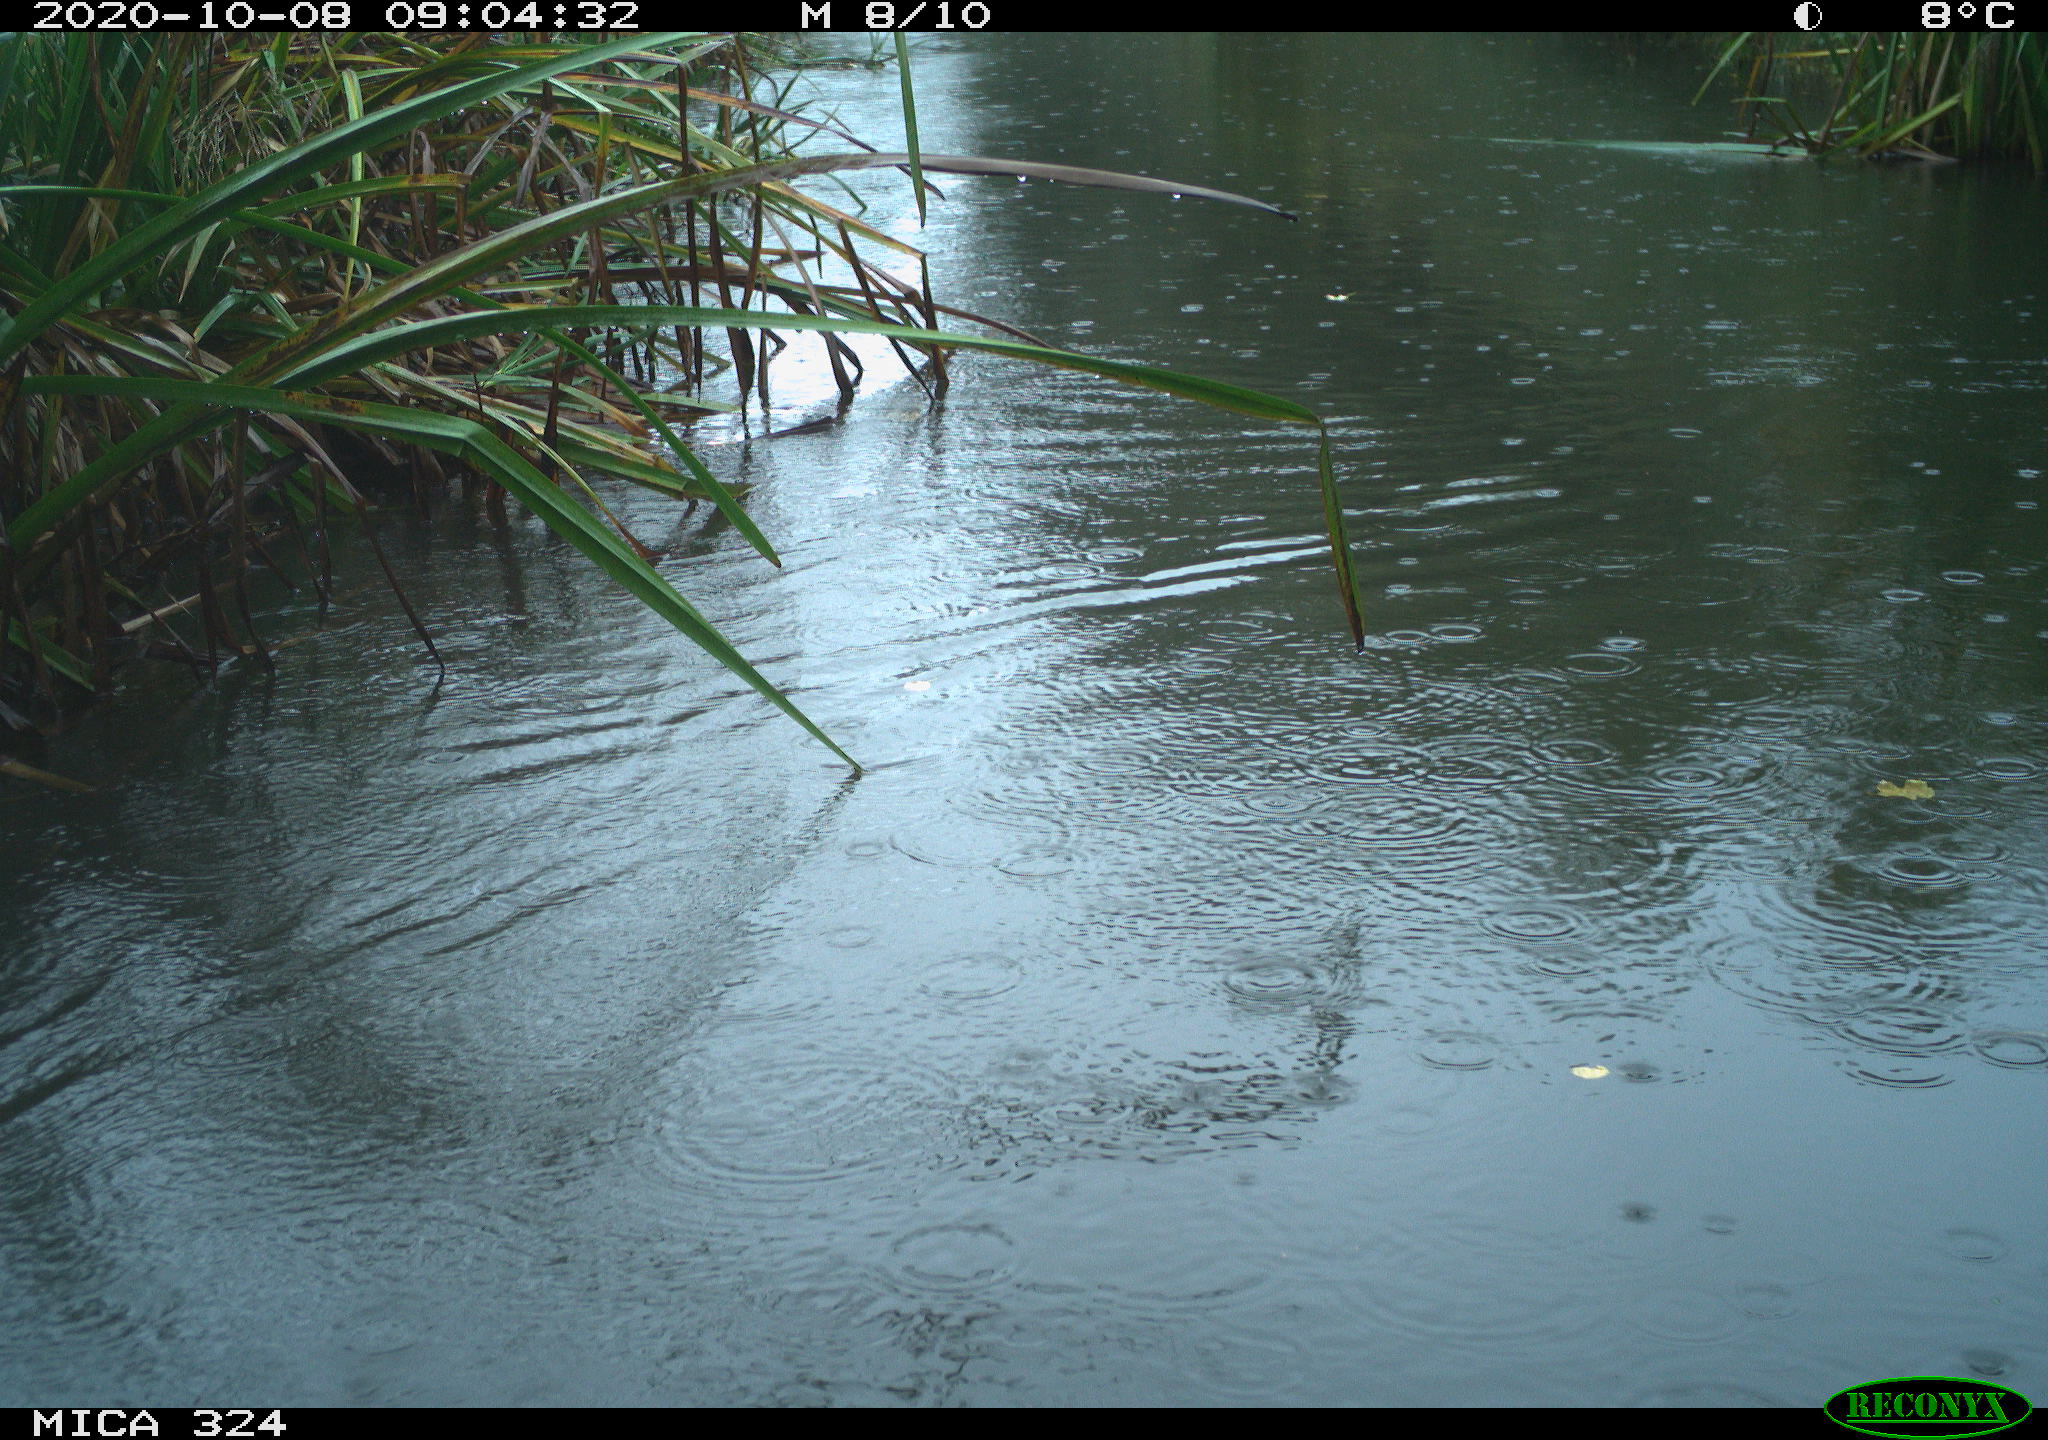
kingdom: Animalia
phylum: Chordata
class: Aves
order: Gruiformes
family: Rallidae
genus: Gallinula
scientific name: Gallinula chloropus
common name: Common moorhen
